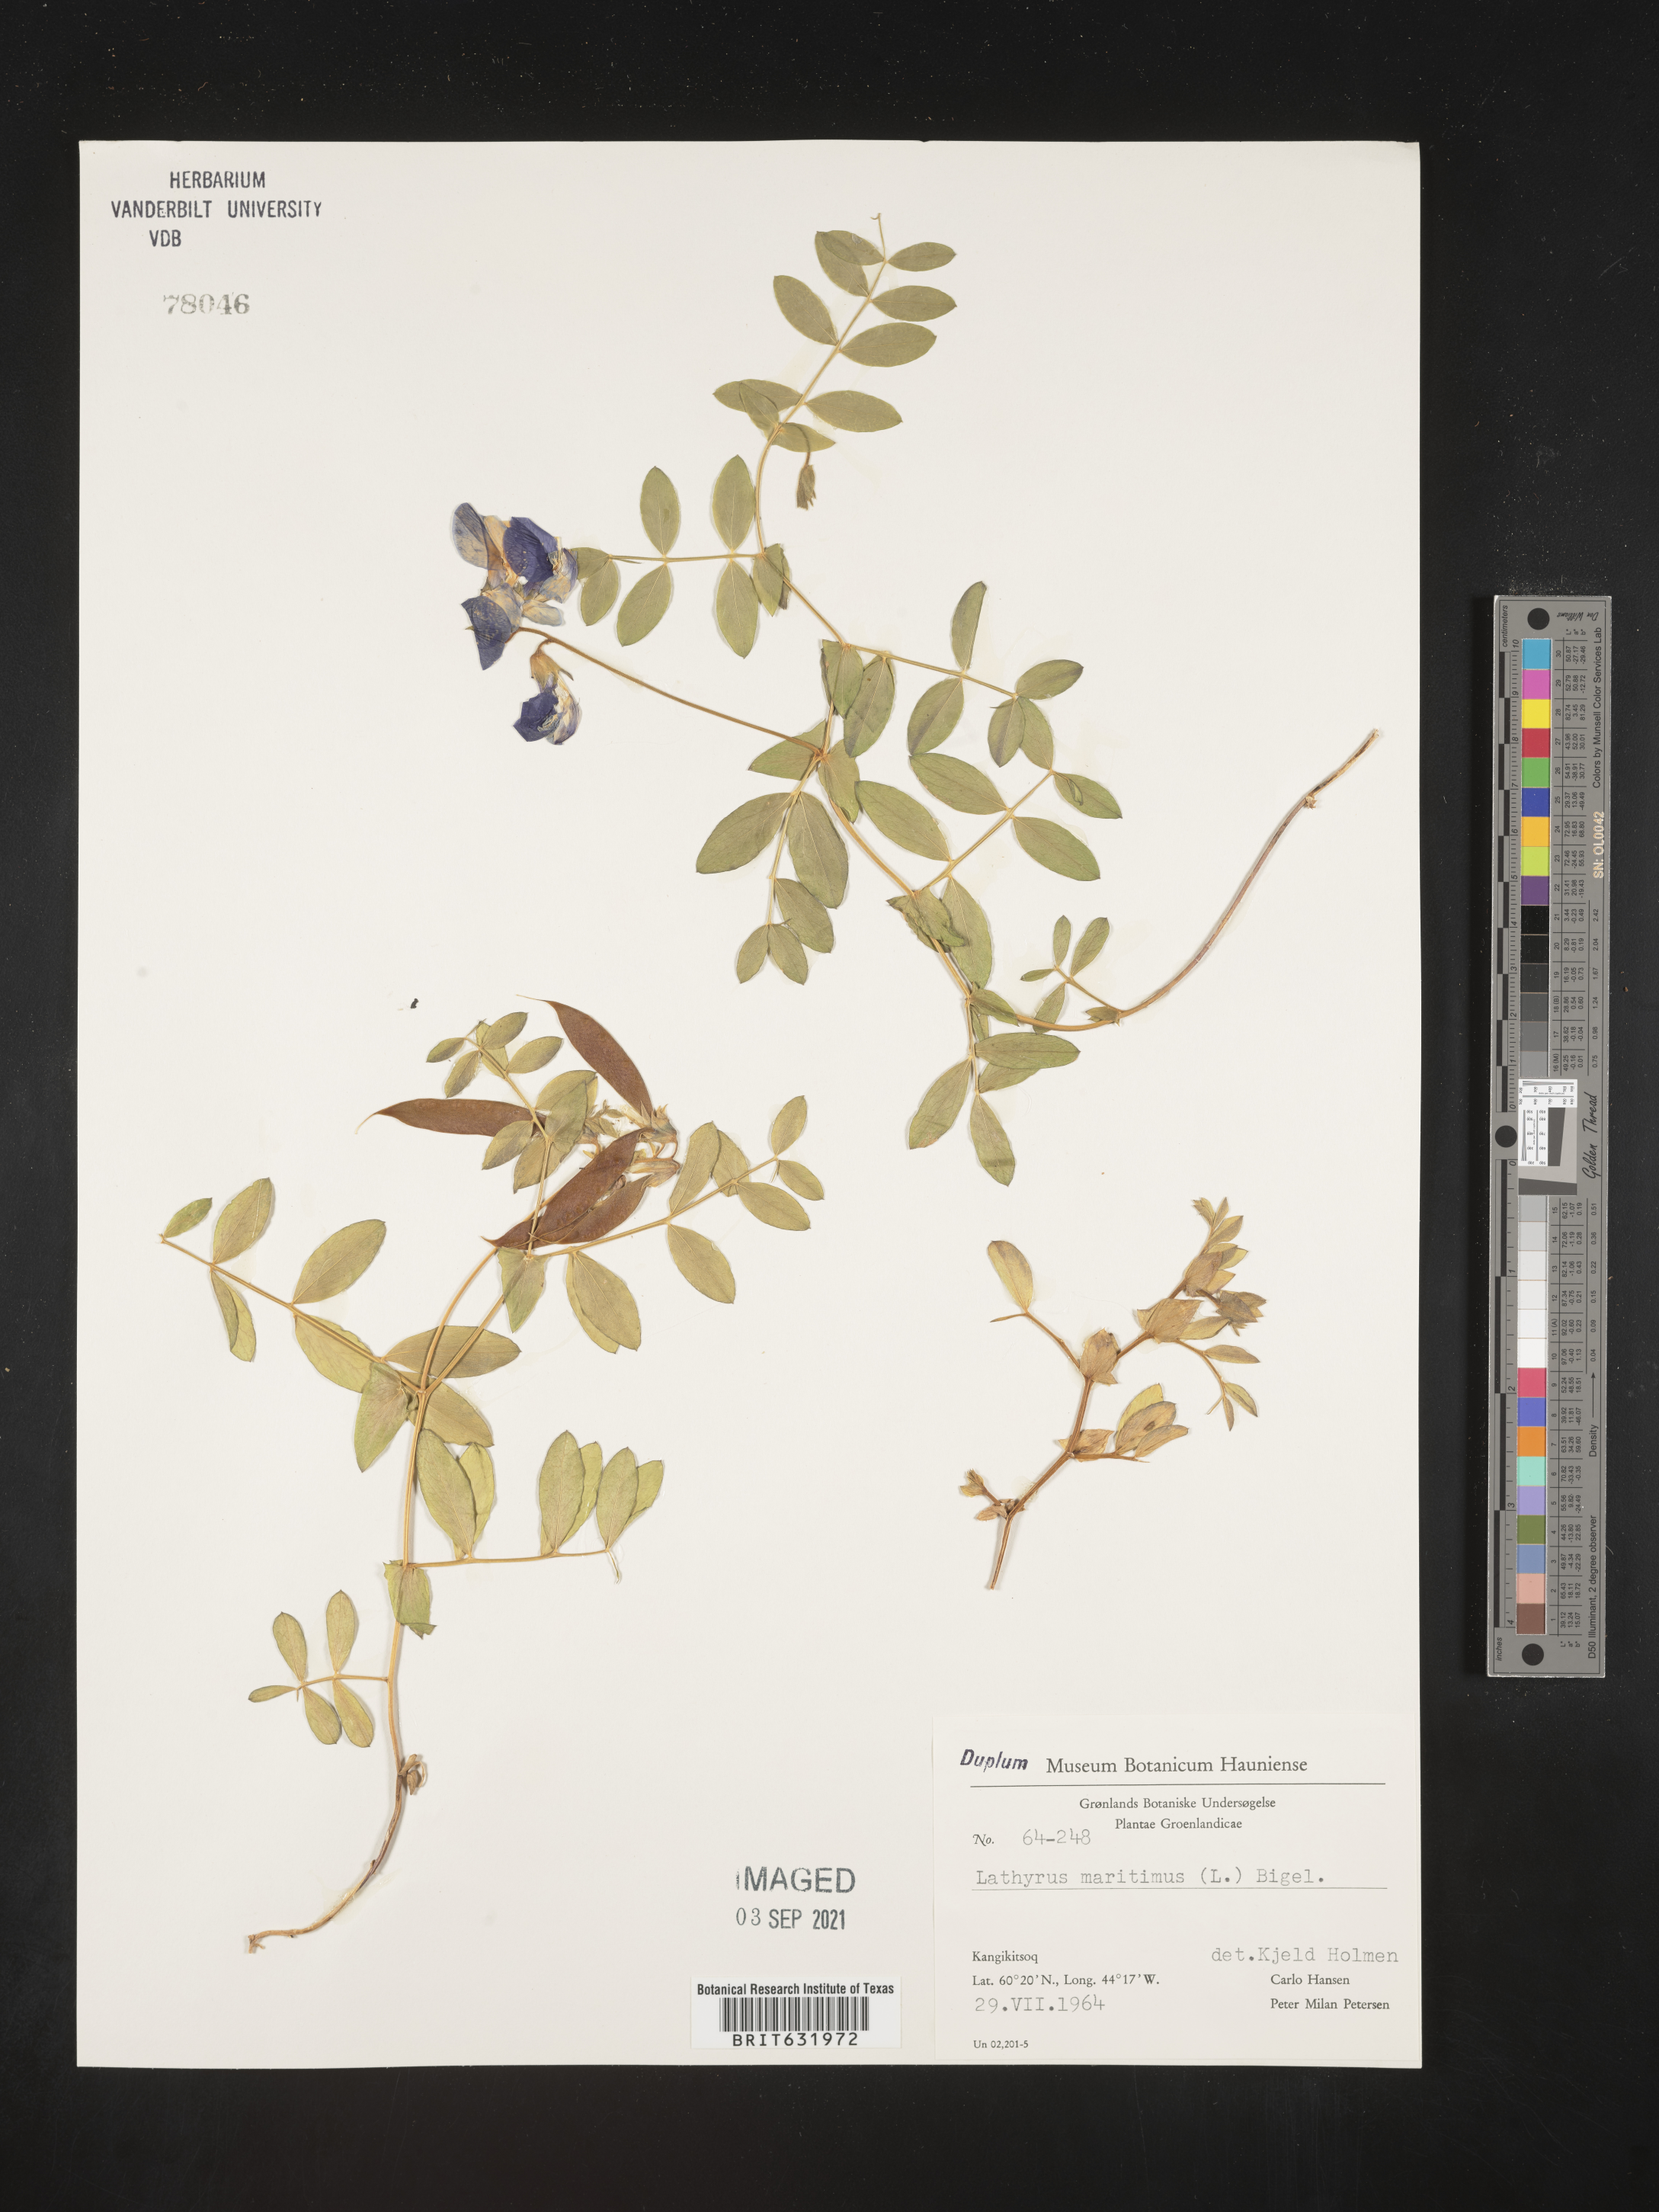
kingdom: Plantae
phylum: Tracheophyta
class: Magnoliopsida
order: Fabales
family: Fabaceae
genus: Lathyrus
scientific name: Lathyrus
